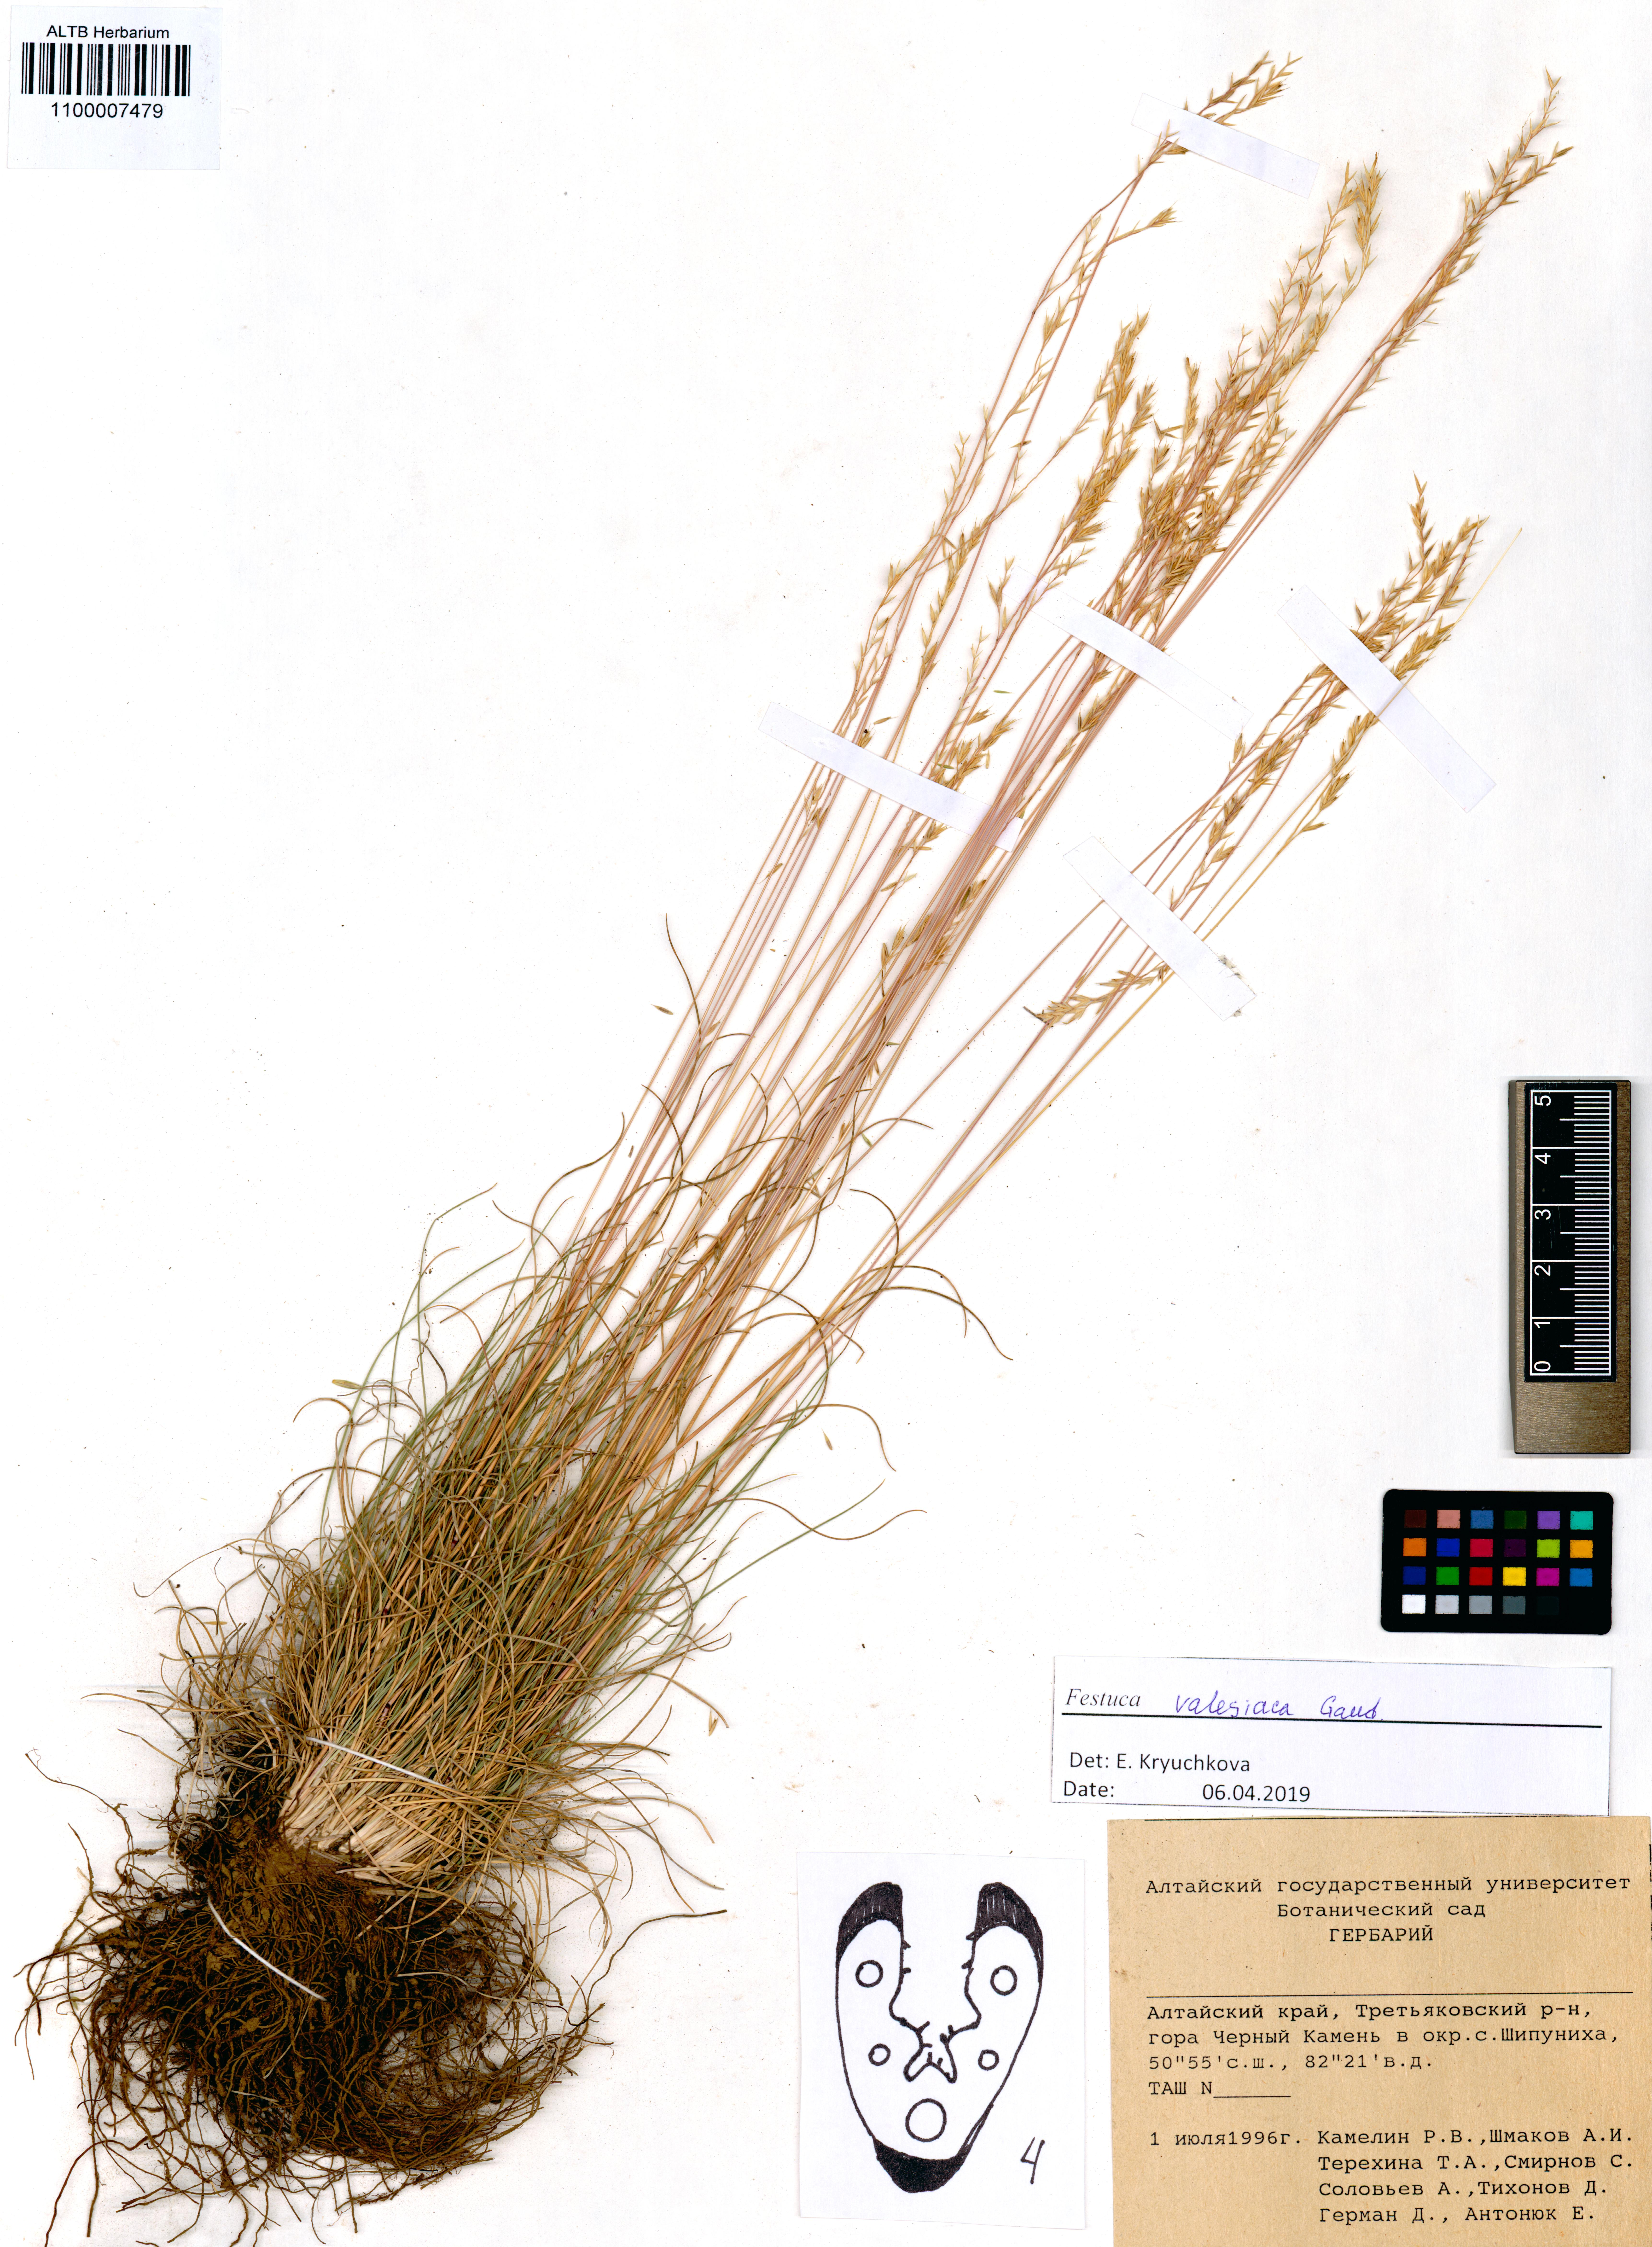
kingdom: Plantae
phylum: Tracheophyta
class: Liliopsida
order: Poales
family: Poaceae
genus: Festuca
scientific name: Festuca valesiaca
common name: Volga fescue
